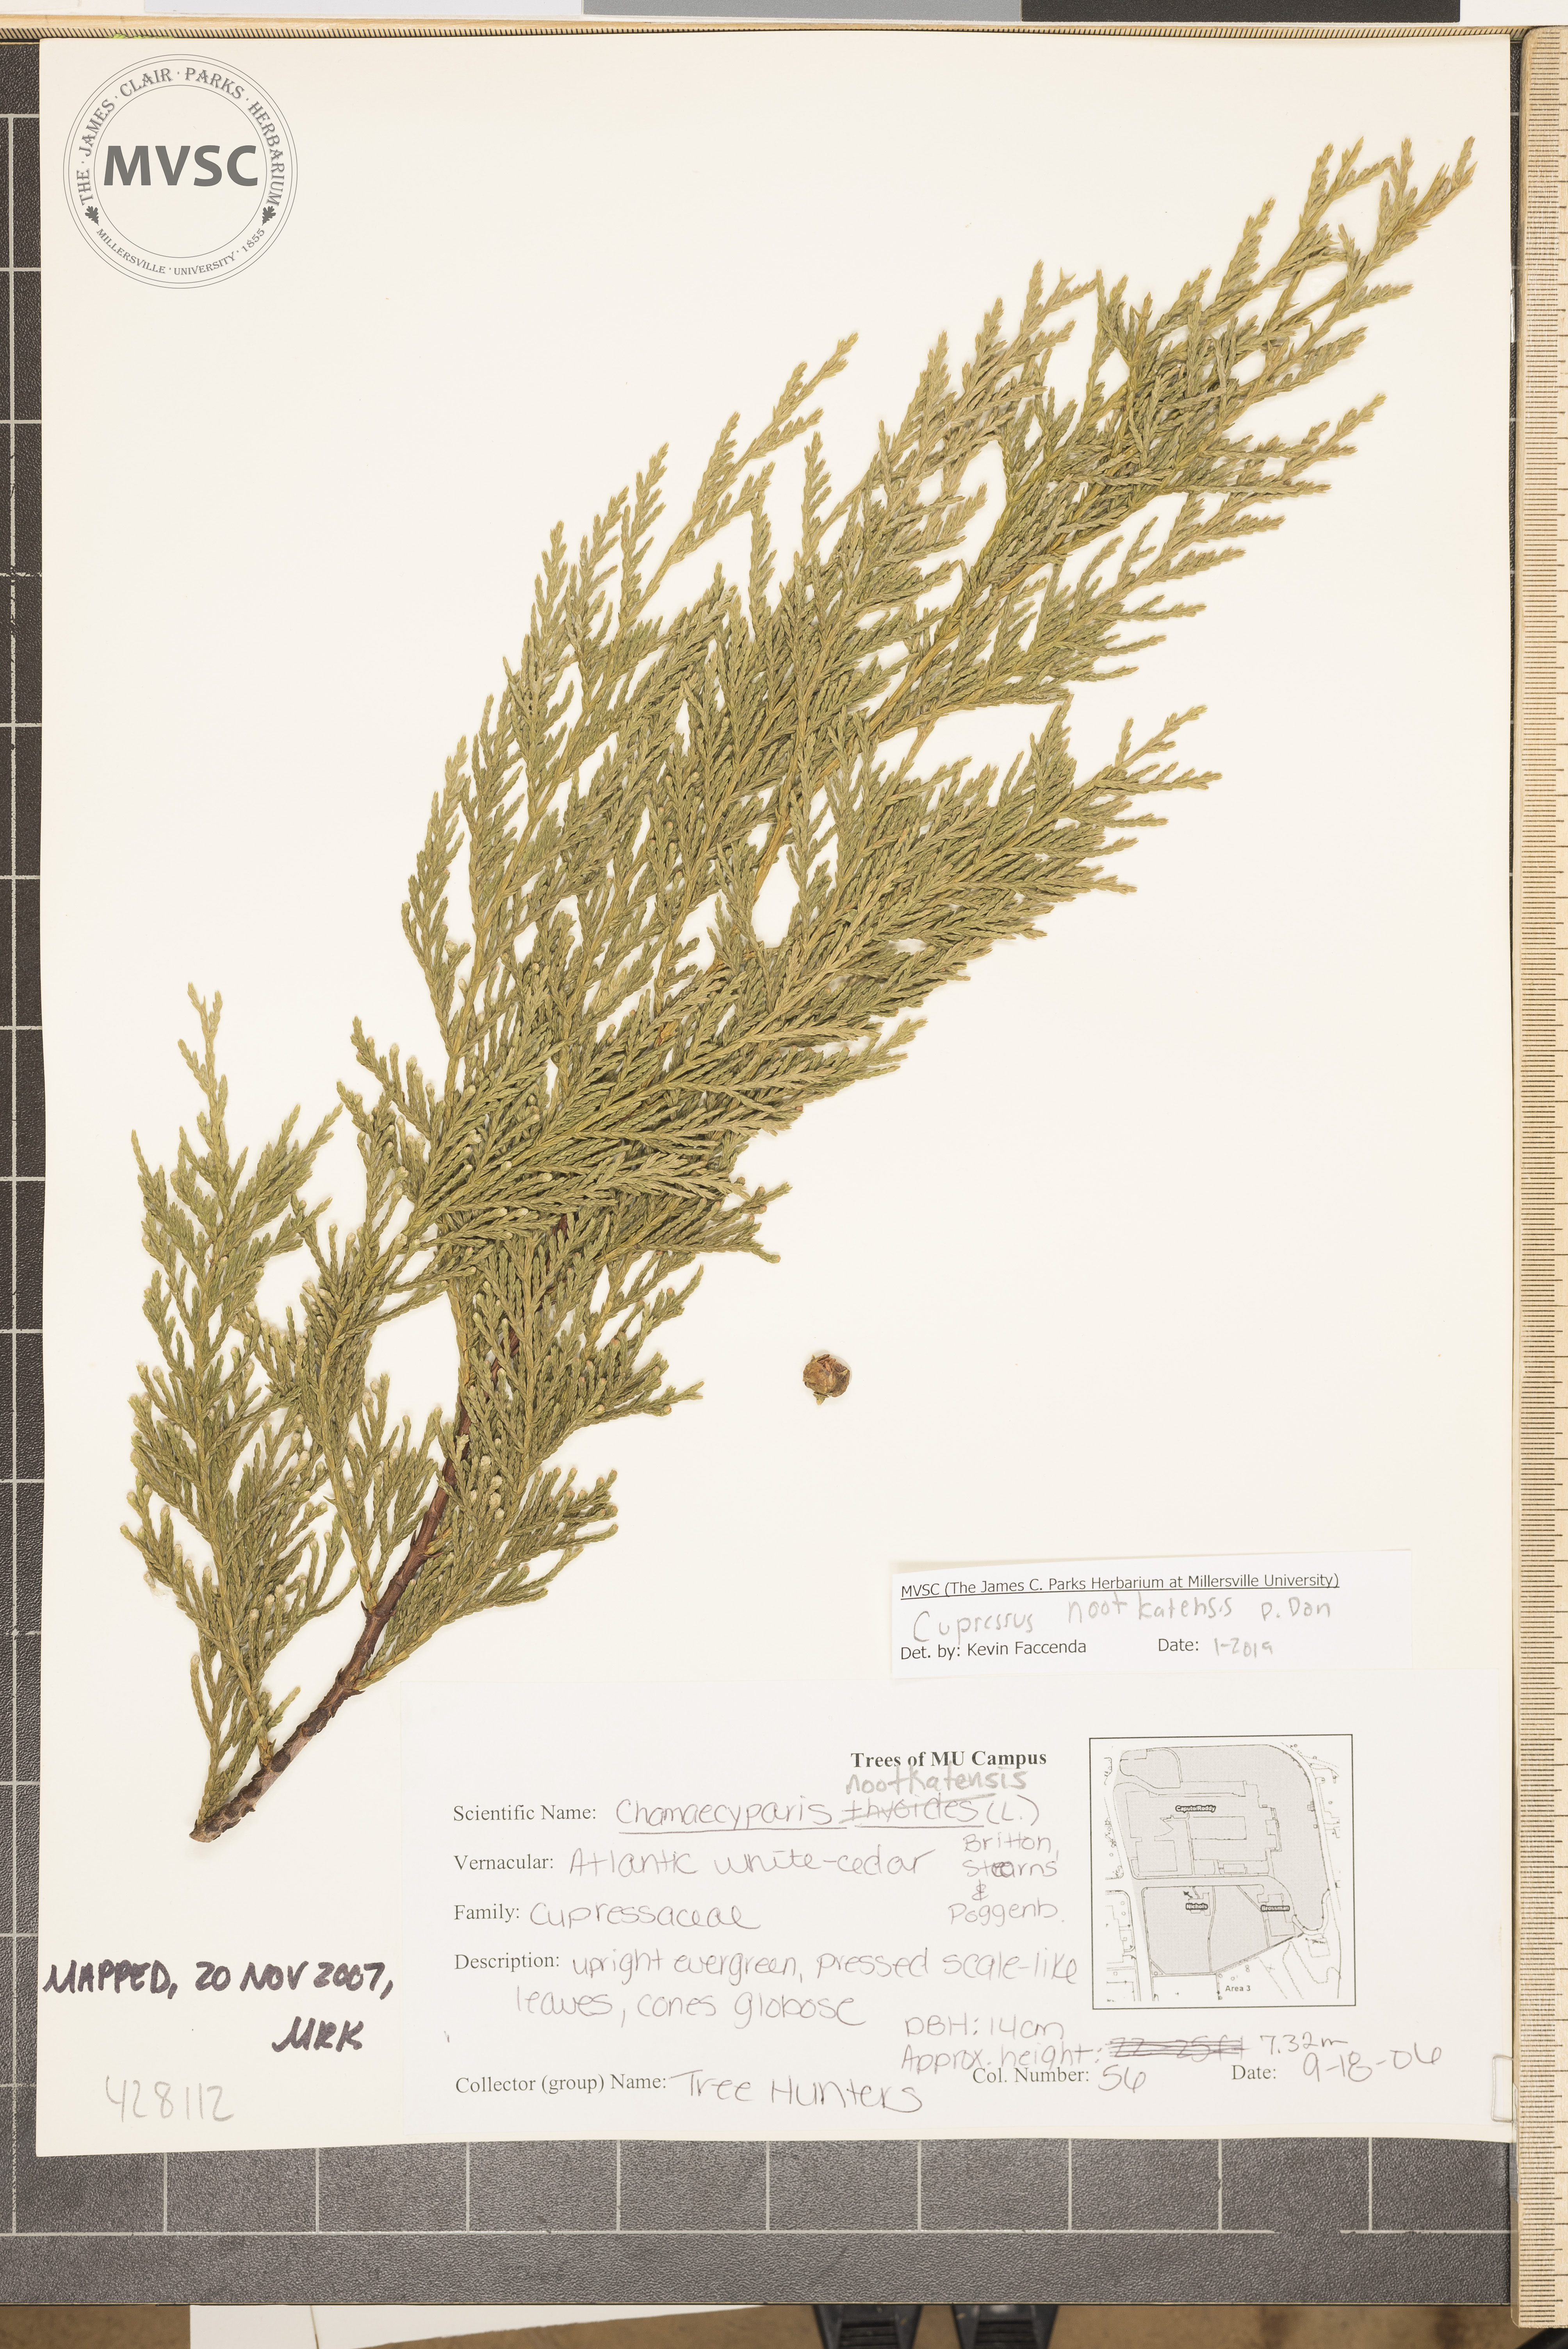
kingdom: Plantae
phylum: Tracheophyta
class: Pinopsida
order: Pinales
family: Cupressaceae
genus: Xanthocyparis
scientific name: Xanthocyparis nootkatensis
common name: Nootka cypress
